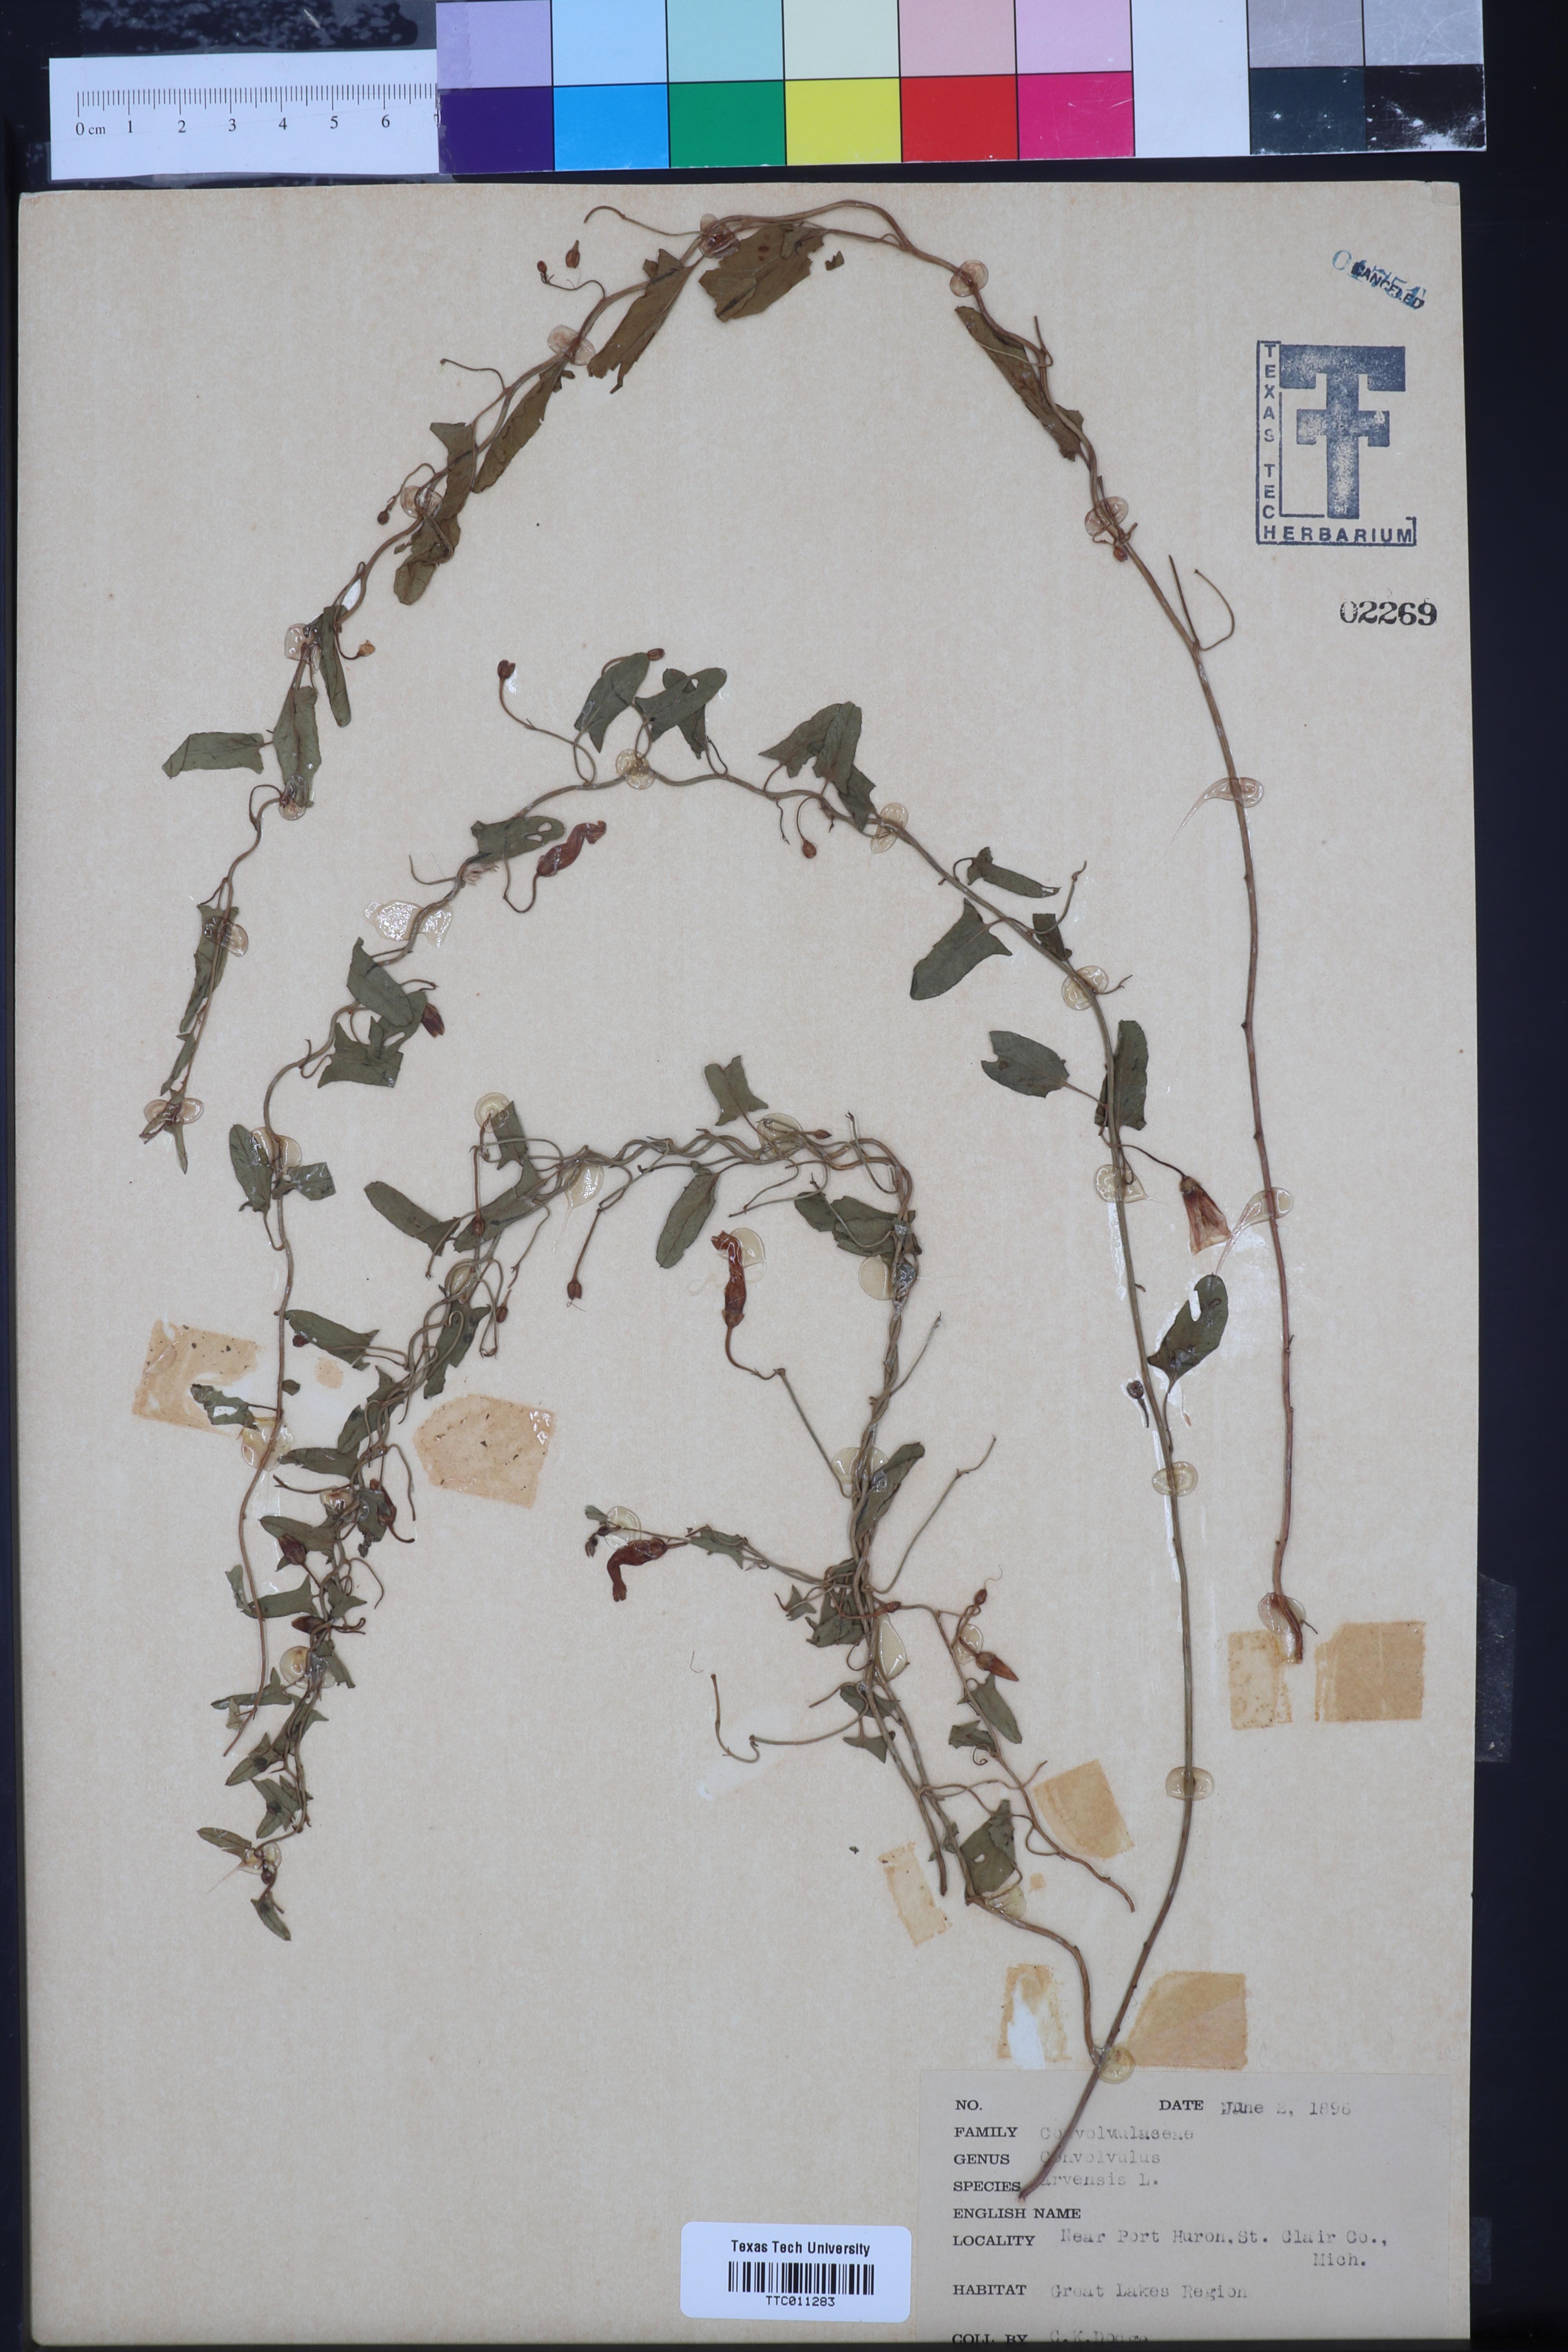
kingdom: Plantae
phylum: Tracheophyta
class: Magnoliopsida
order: Solanales
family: Convolvulaceae
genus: Convolvulus
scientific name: Convolvulus arvensis
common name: Field bindweed
